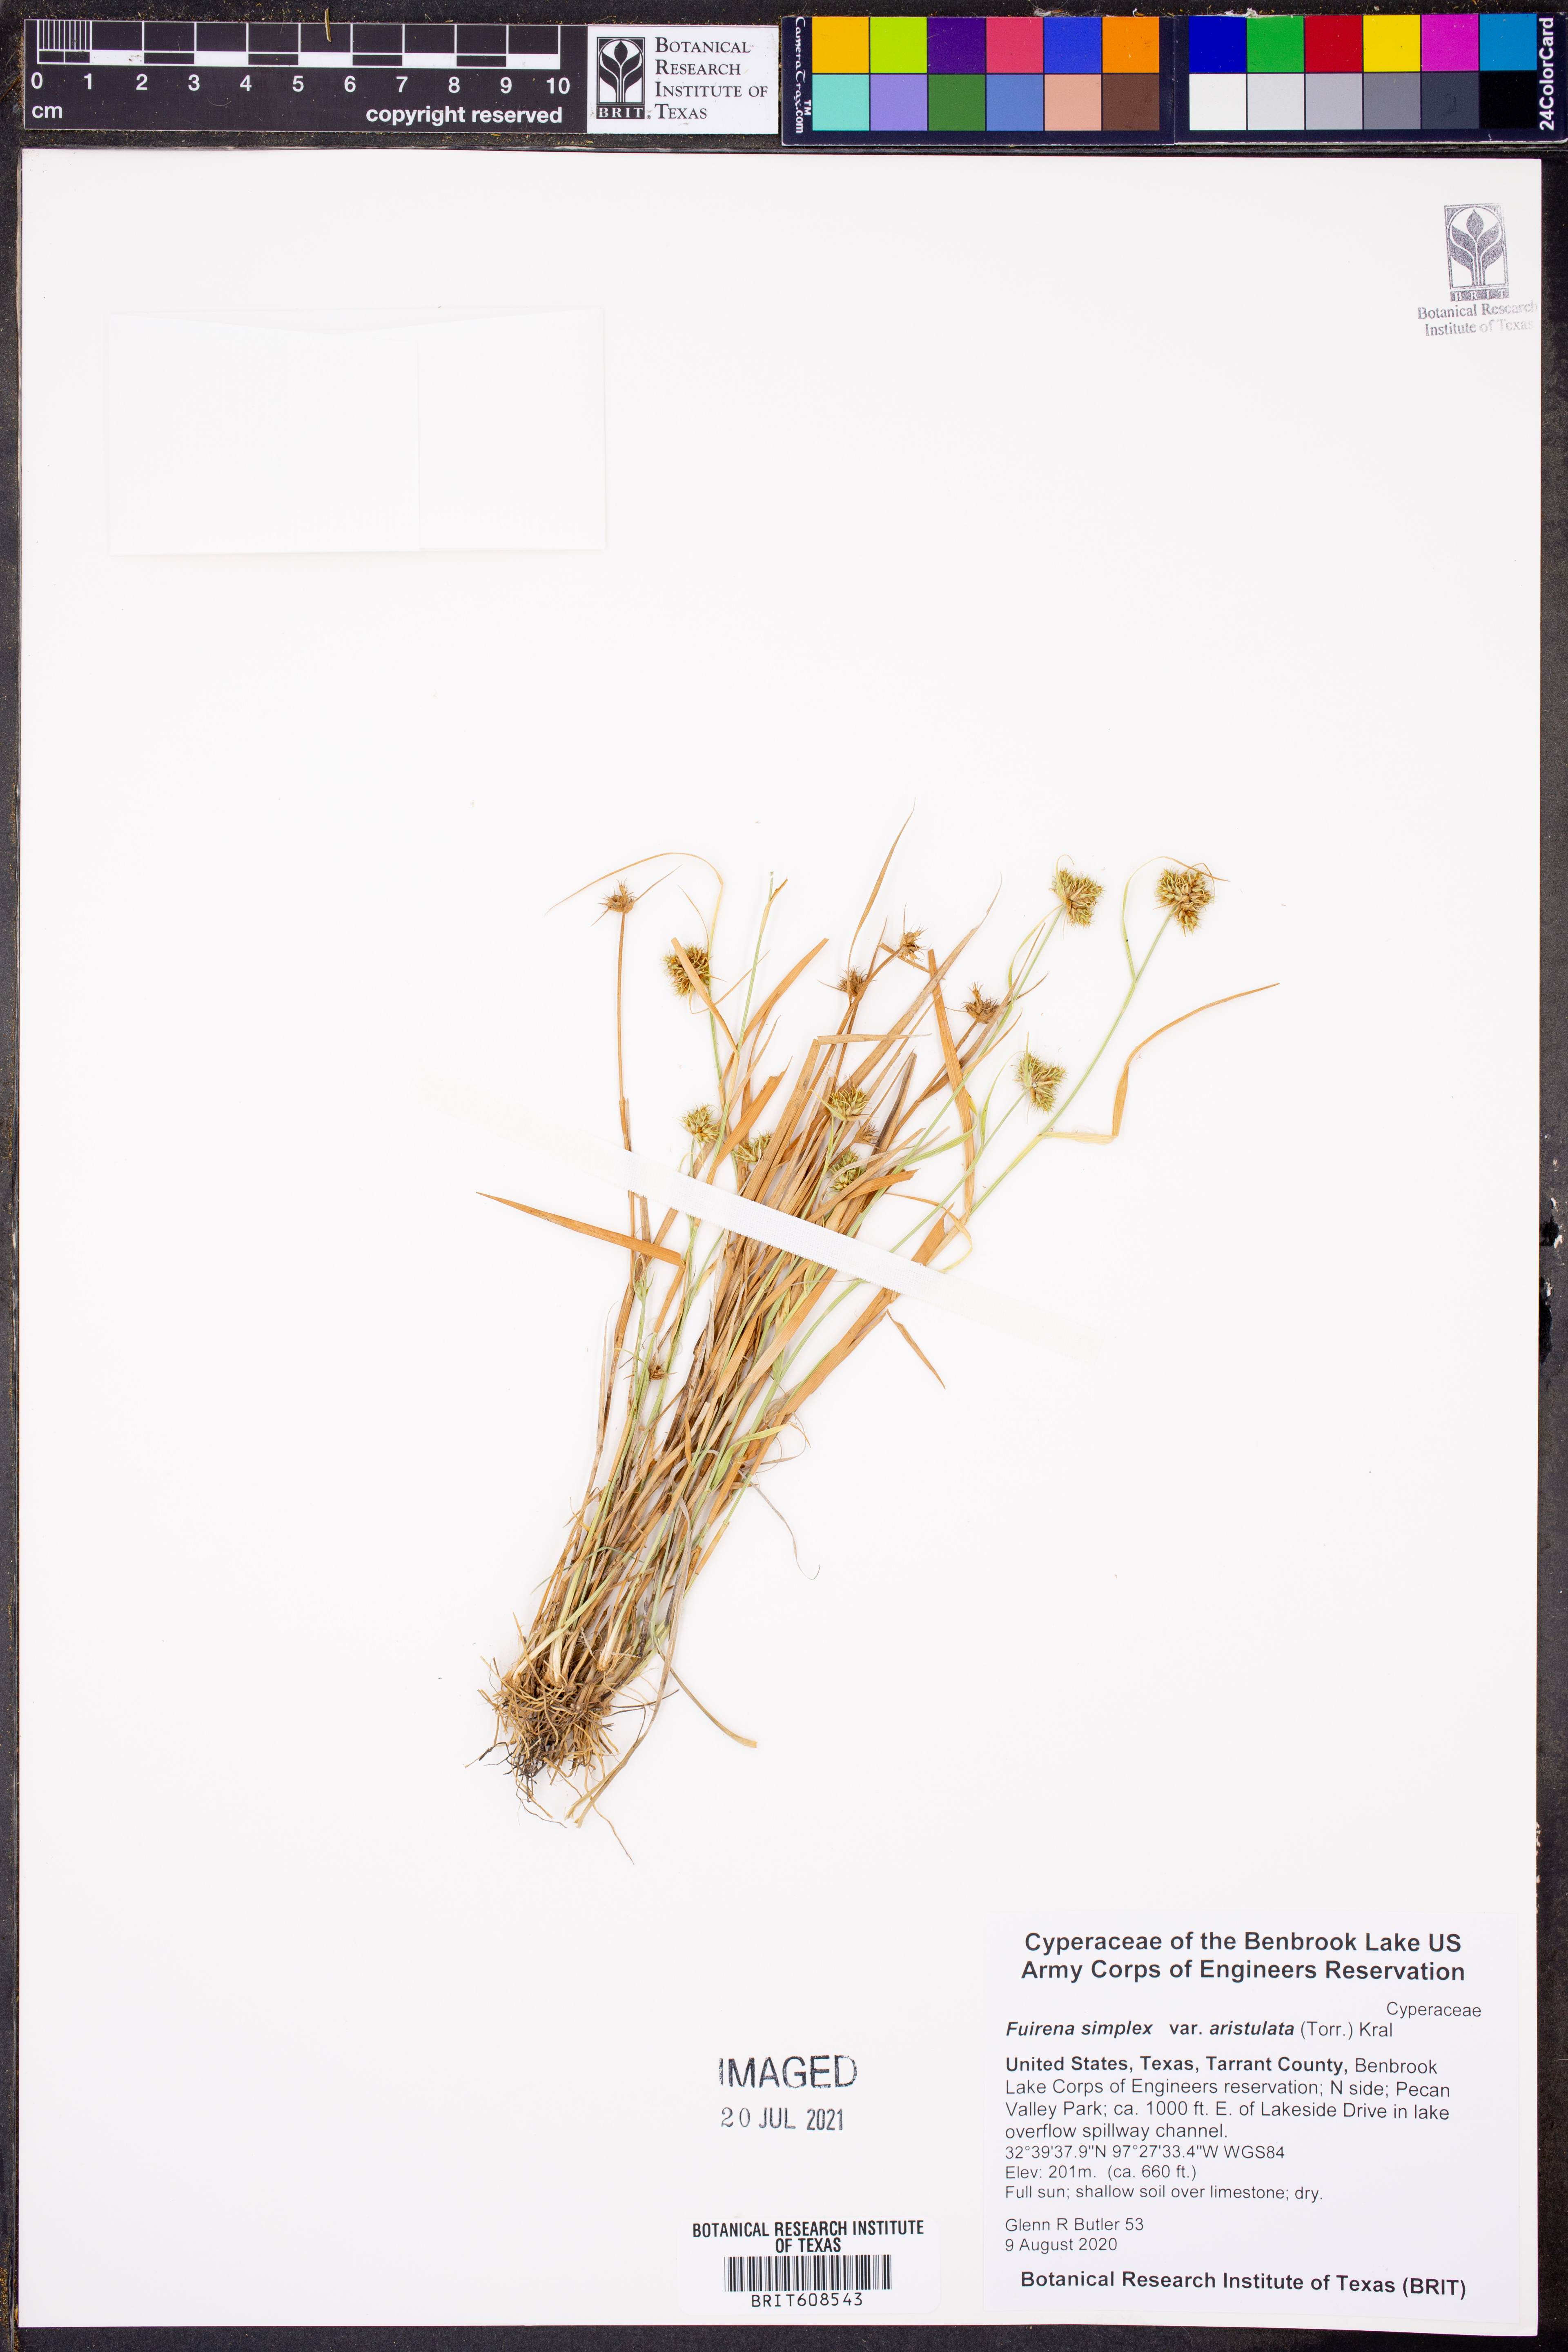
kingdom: Plantae
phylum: Tracheophyta
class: Liliopsida
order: Poales
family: Cyperaceae
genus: Fuirena
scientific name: Fuirena simplex
